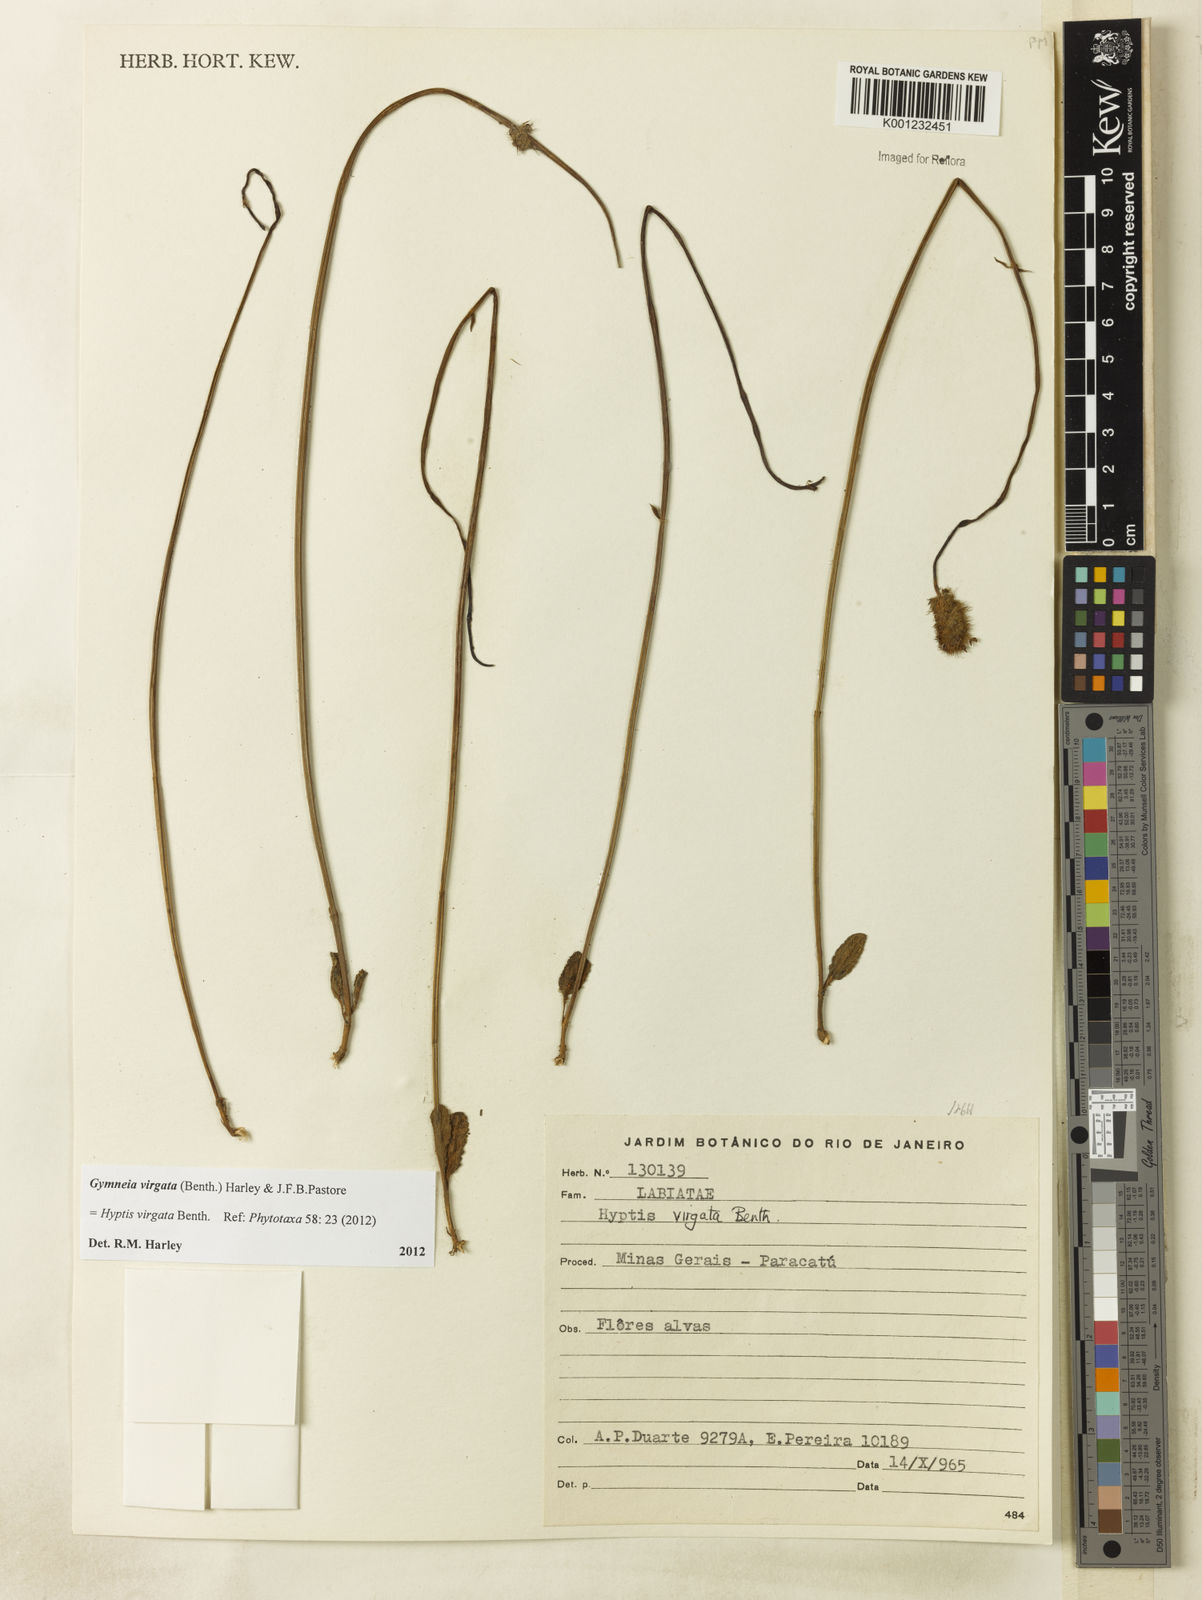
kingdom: Plantae
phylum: Tracheophyta
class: Magnoliopsida
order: Lamiales
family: Lamiaceae
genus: Gymneia
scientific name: Gymneia virgata
